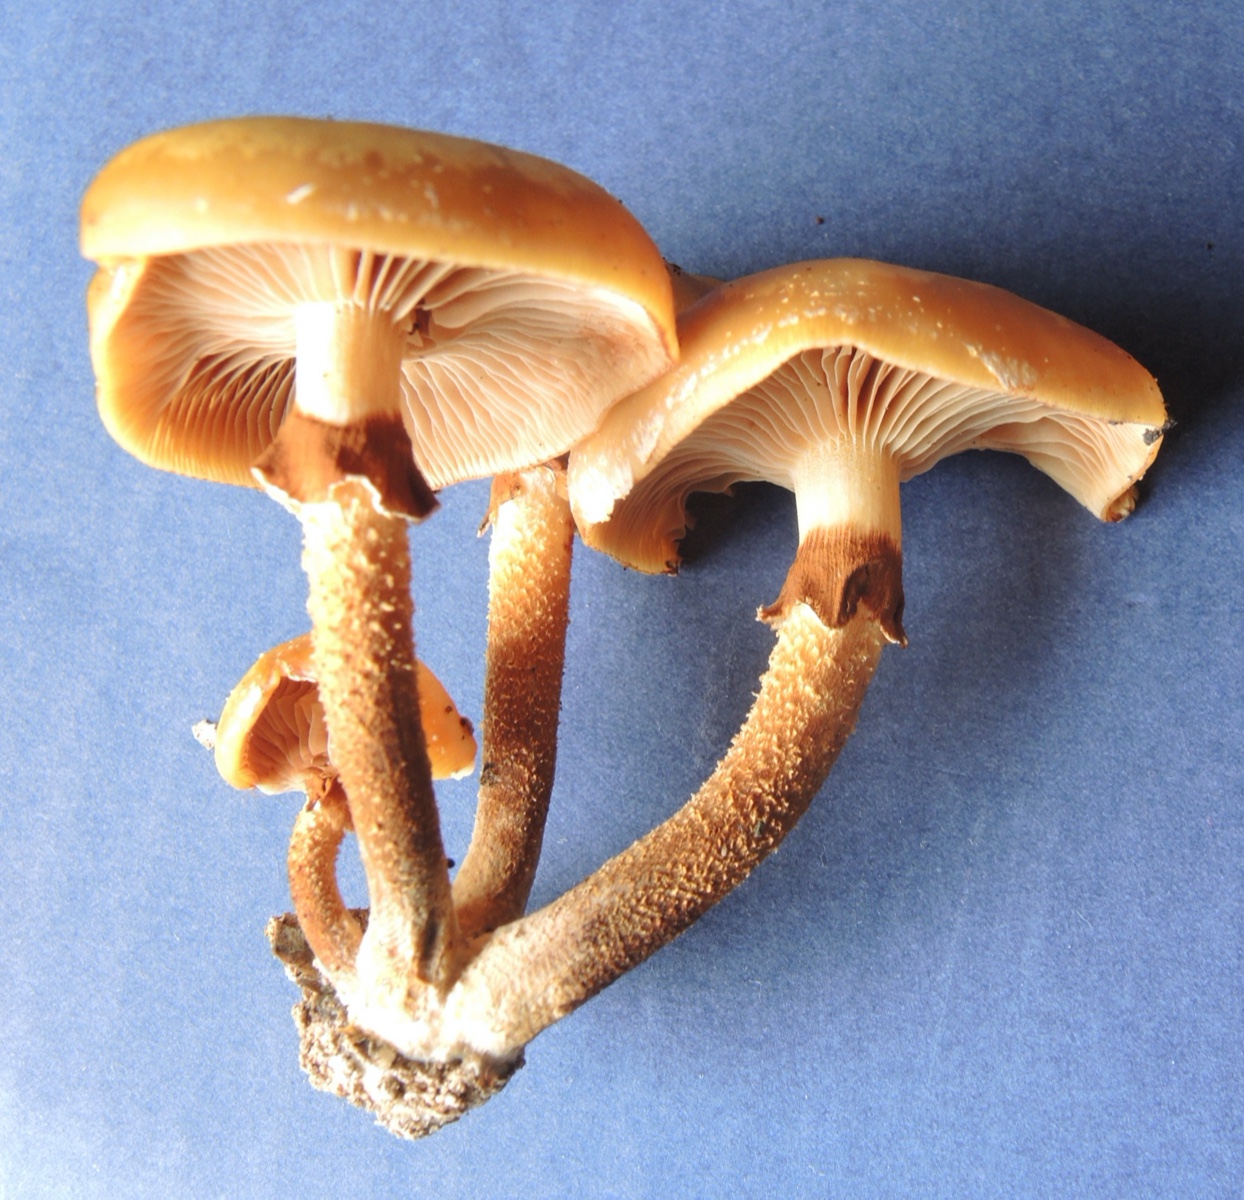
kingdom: Fungi
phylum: Basidiomycota
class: Agaricomycetes
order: Agaricales
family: Strophariaceae
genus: Kuehneromyces
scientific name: Kuehneromyces mutabilis
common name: foranderlig skælhat
